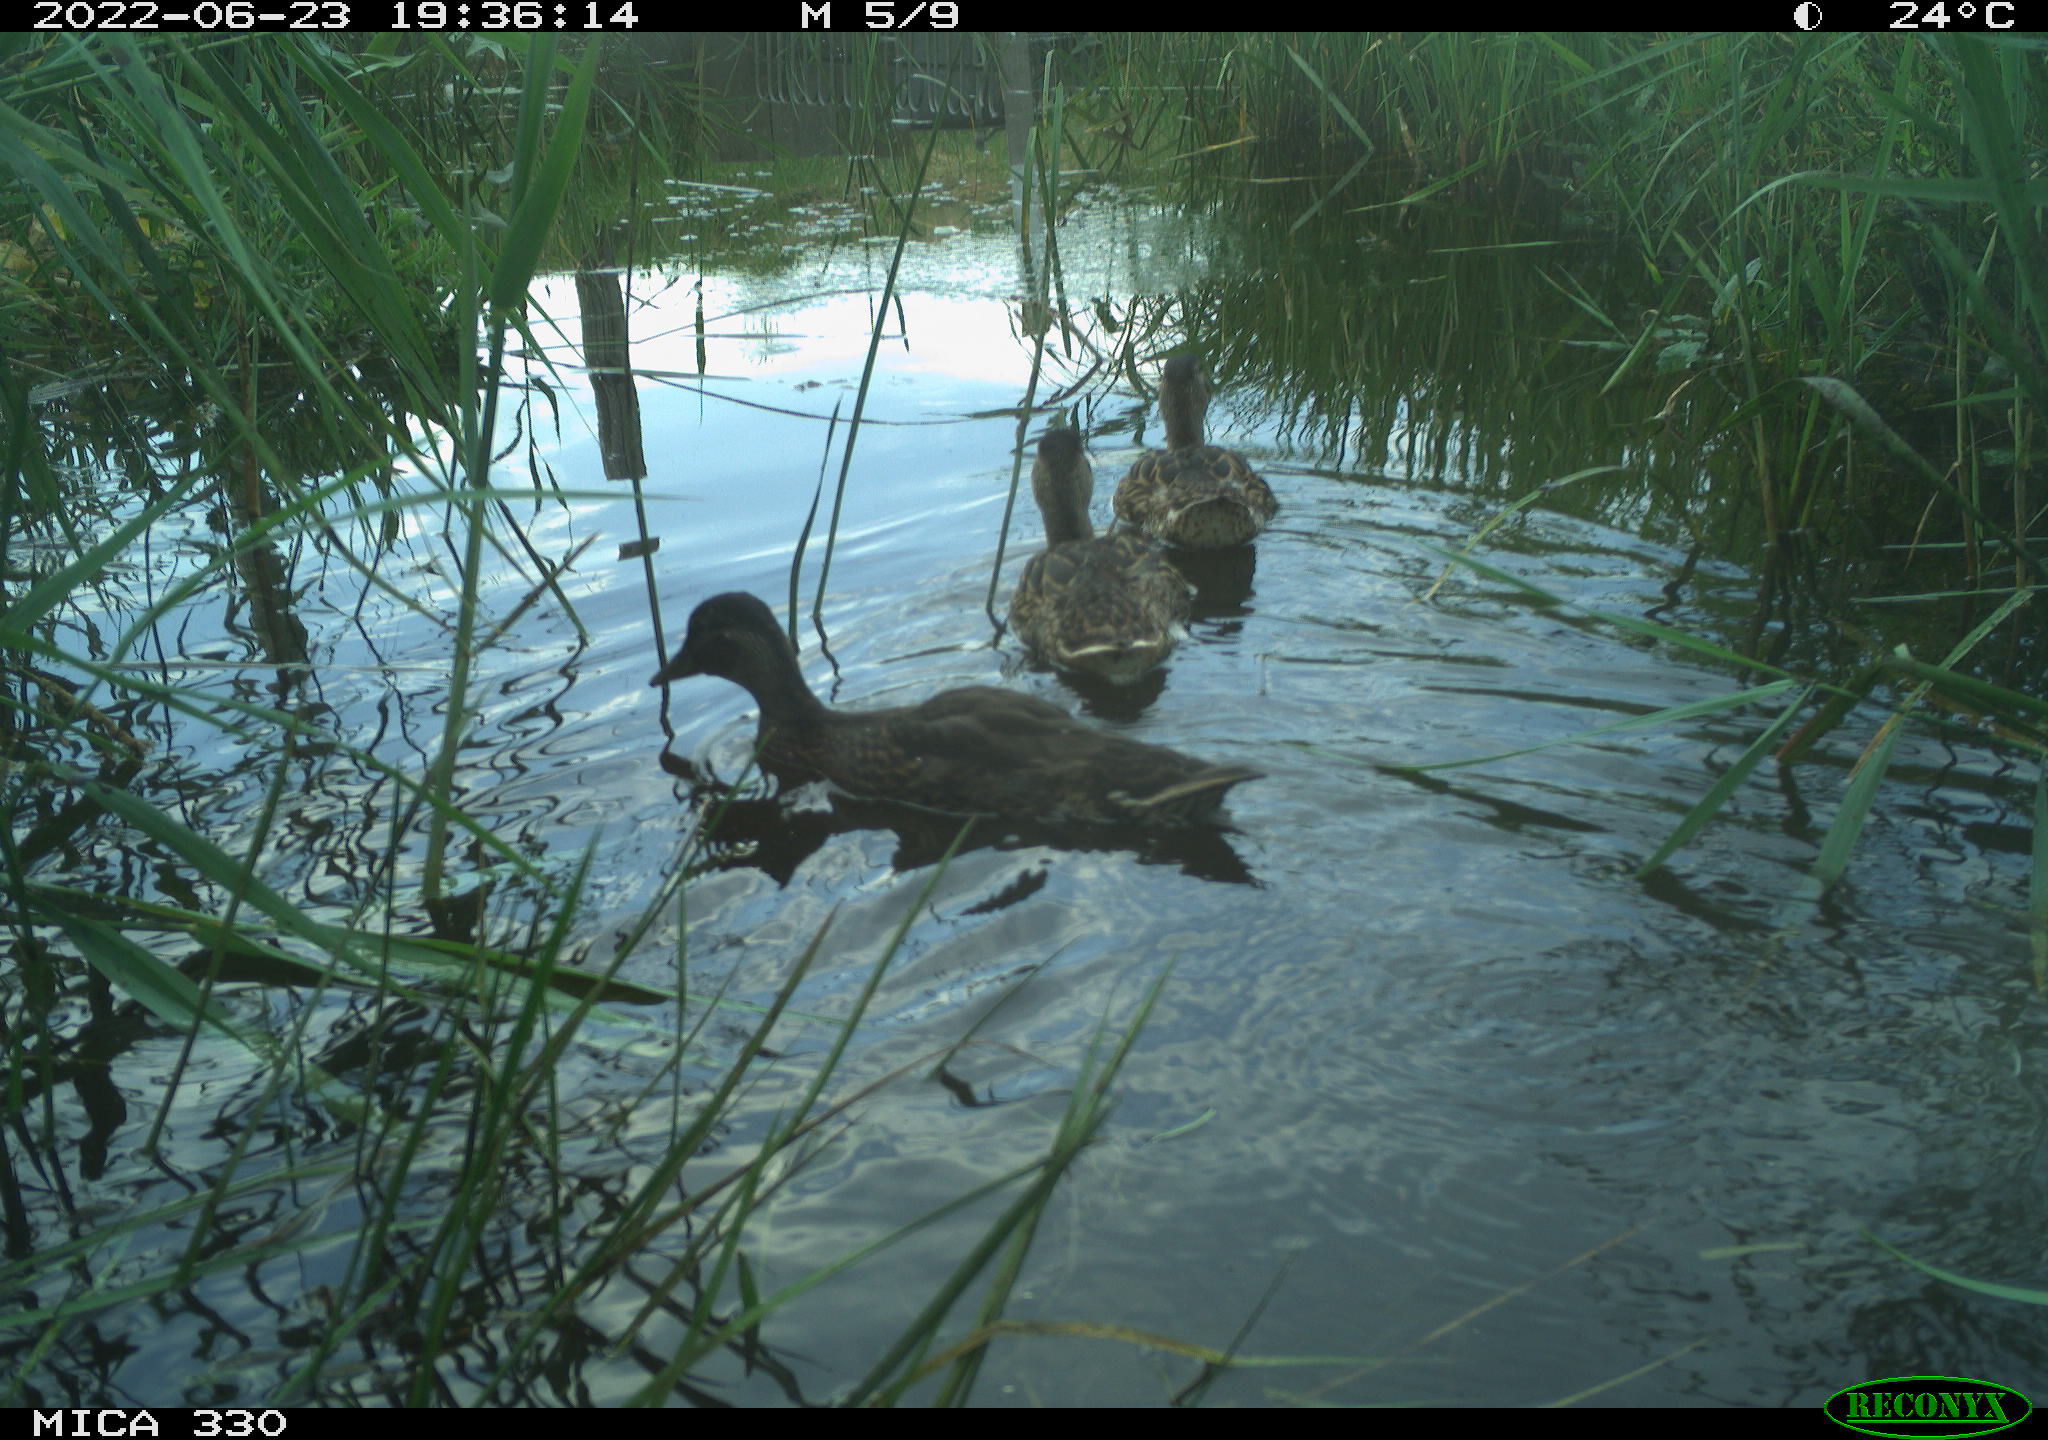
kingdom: Animalia
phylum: Chordata
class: Aves
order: Anseriformes
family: Anatidae
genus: Mareca
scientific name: Mareca strepera
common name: Gadwall
